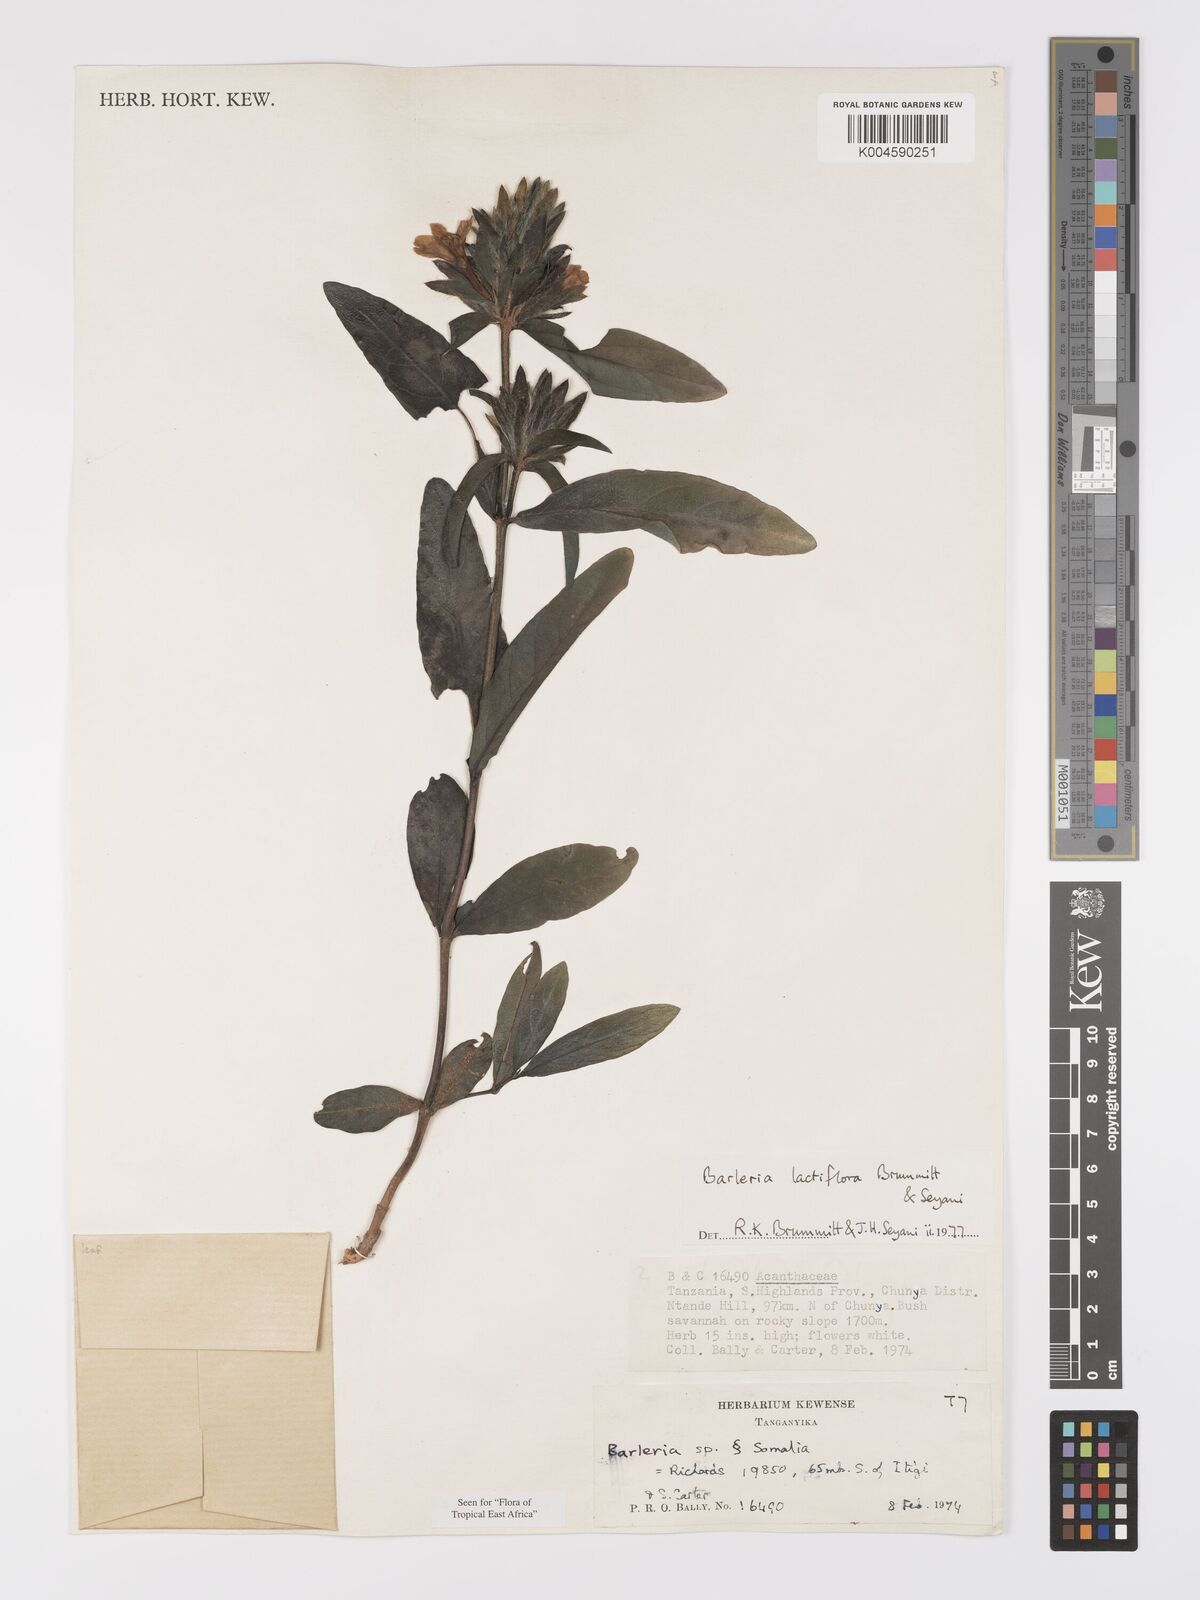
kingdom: Plantae
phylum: Tracheophyta
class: Magnoliopsida
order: Lamiales
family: Acanthaceae
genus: Barleria
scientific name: Barleria lactiflora
